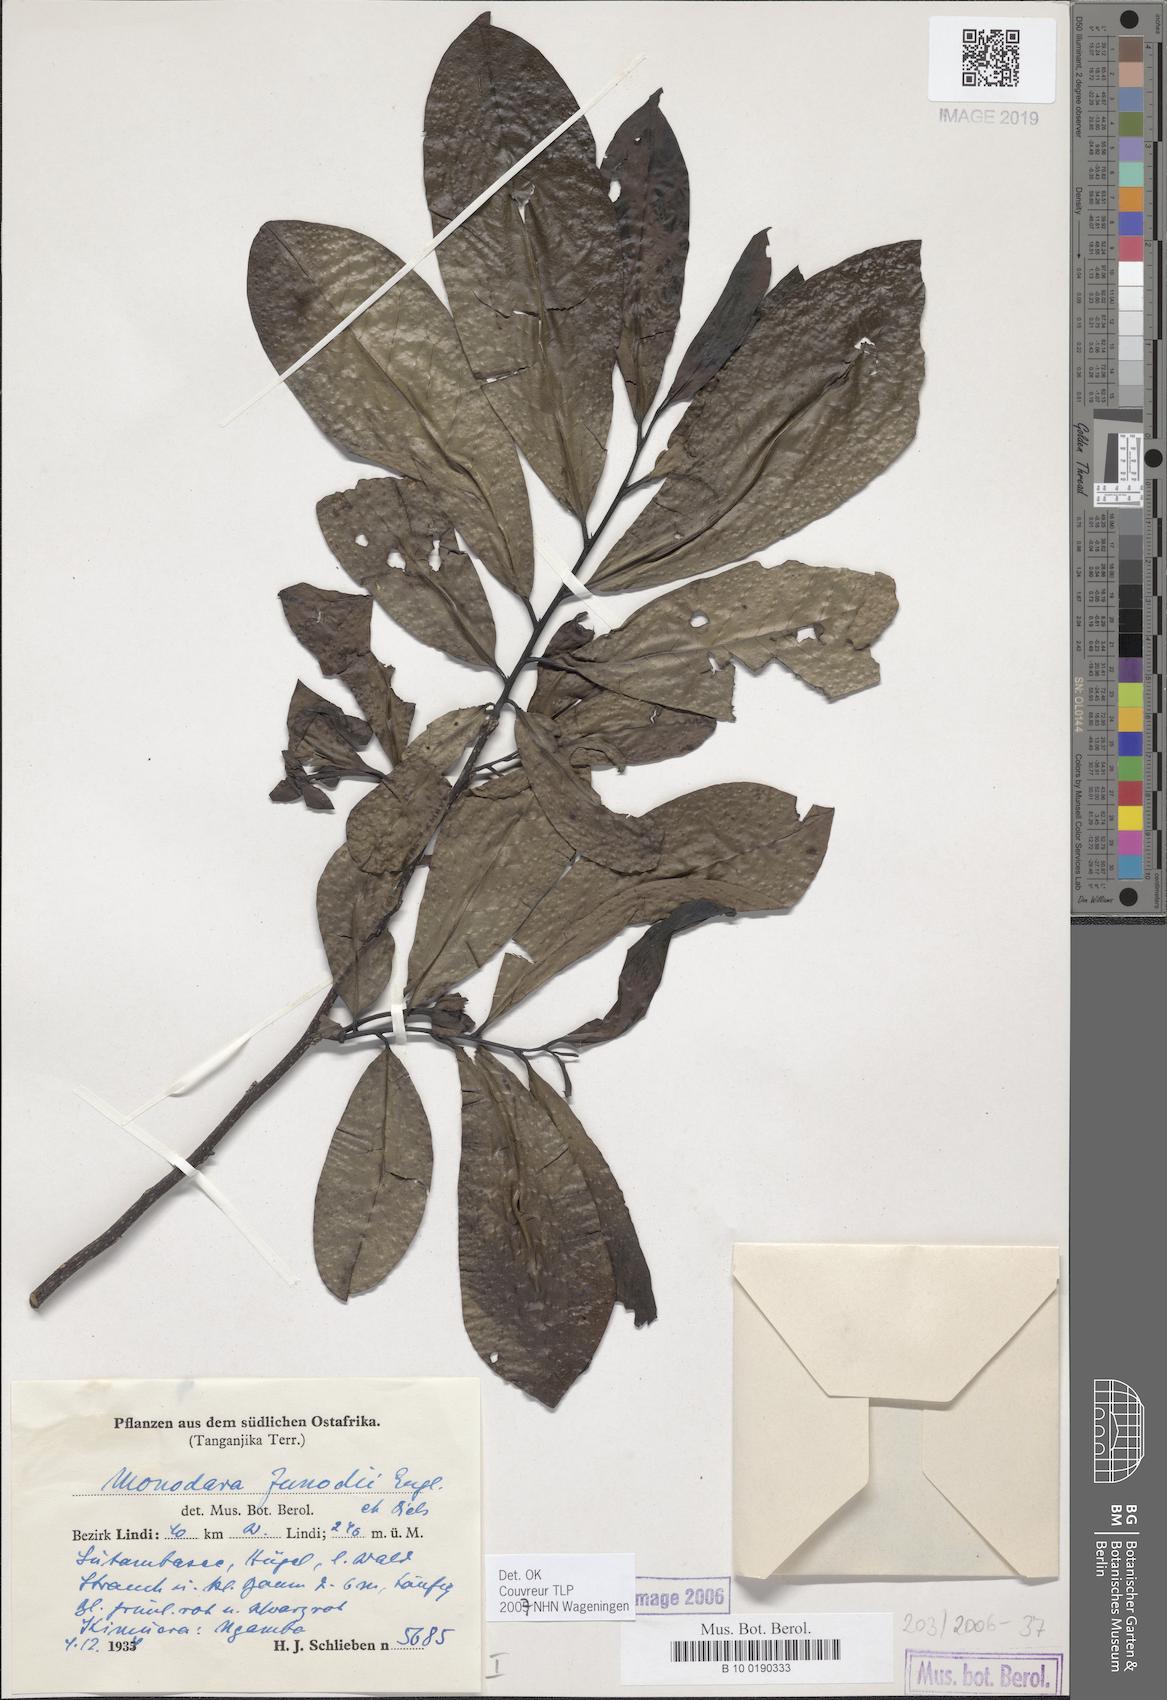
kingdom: Plantae
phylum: Tracheophyta
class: Magnoliopsida
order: Magnoliales
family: Annonaceae
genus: Monodora
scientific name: Monodora junodii
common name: Green-apple
